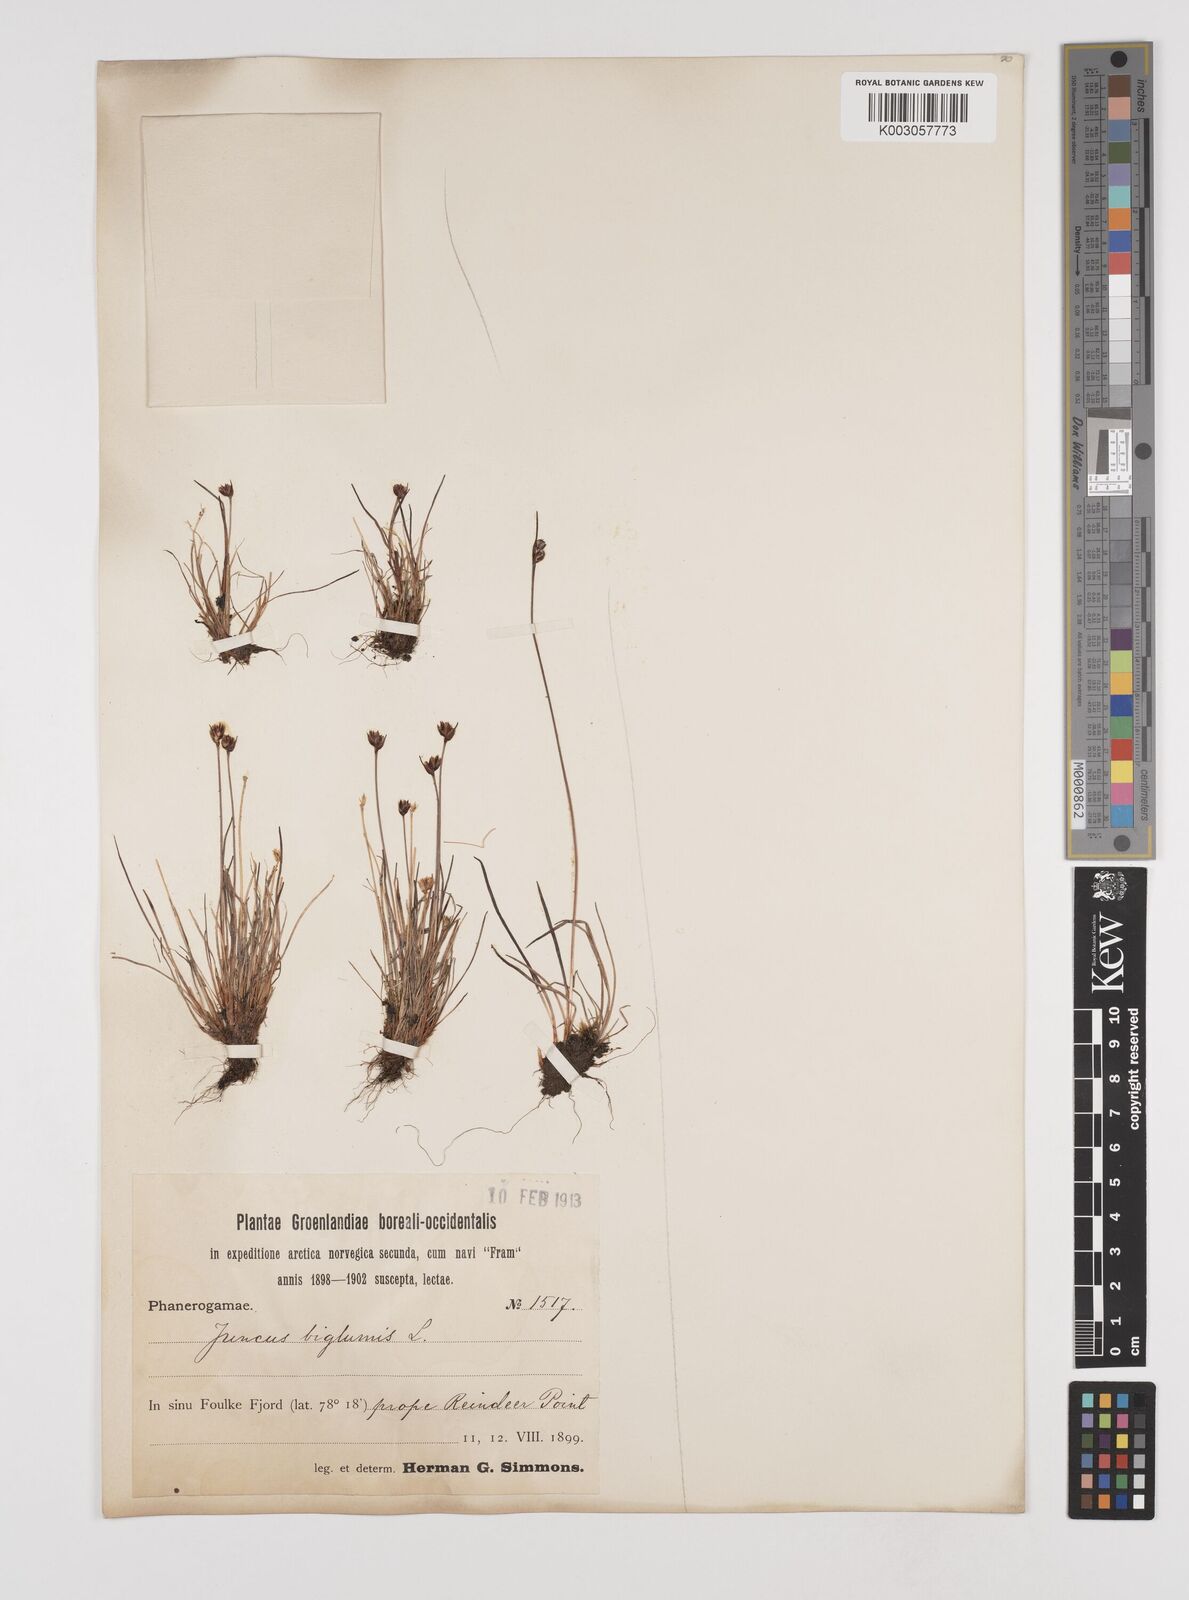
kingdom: Plantae
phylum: Tracheophyta
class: Liliopsida
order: Poales
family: Juncaceae
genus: Juncus
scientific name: Juncus biglumis
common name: Two-flowered rush
